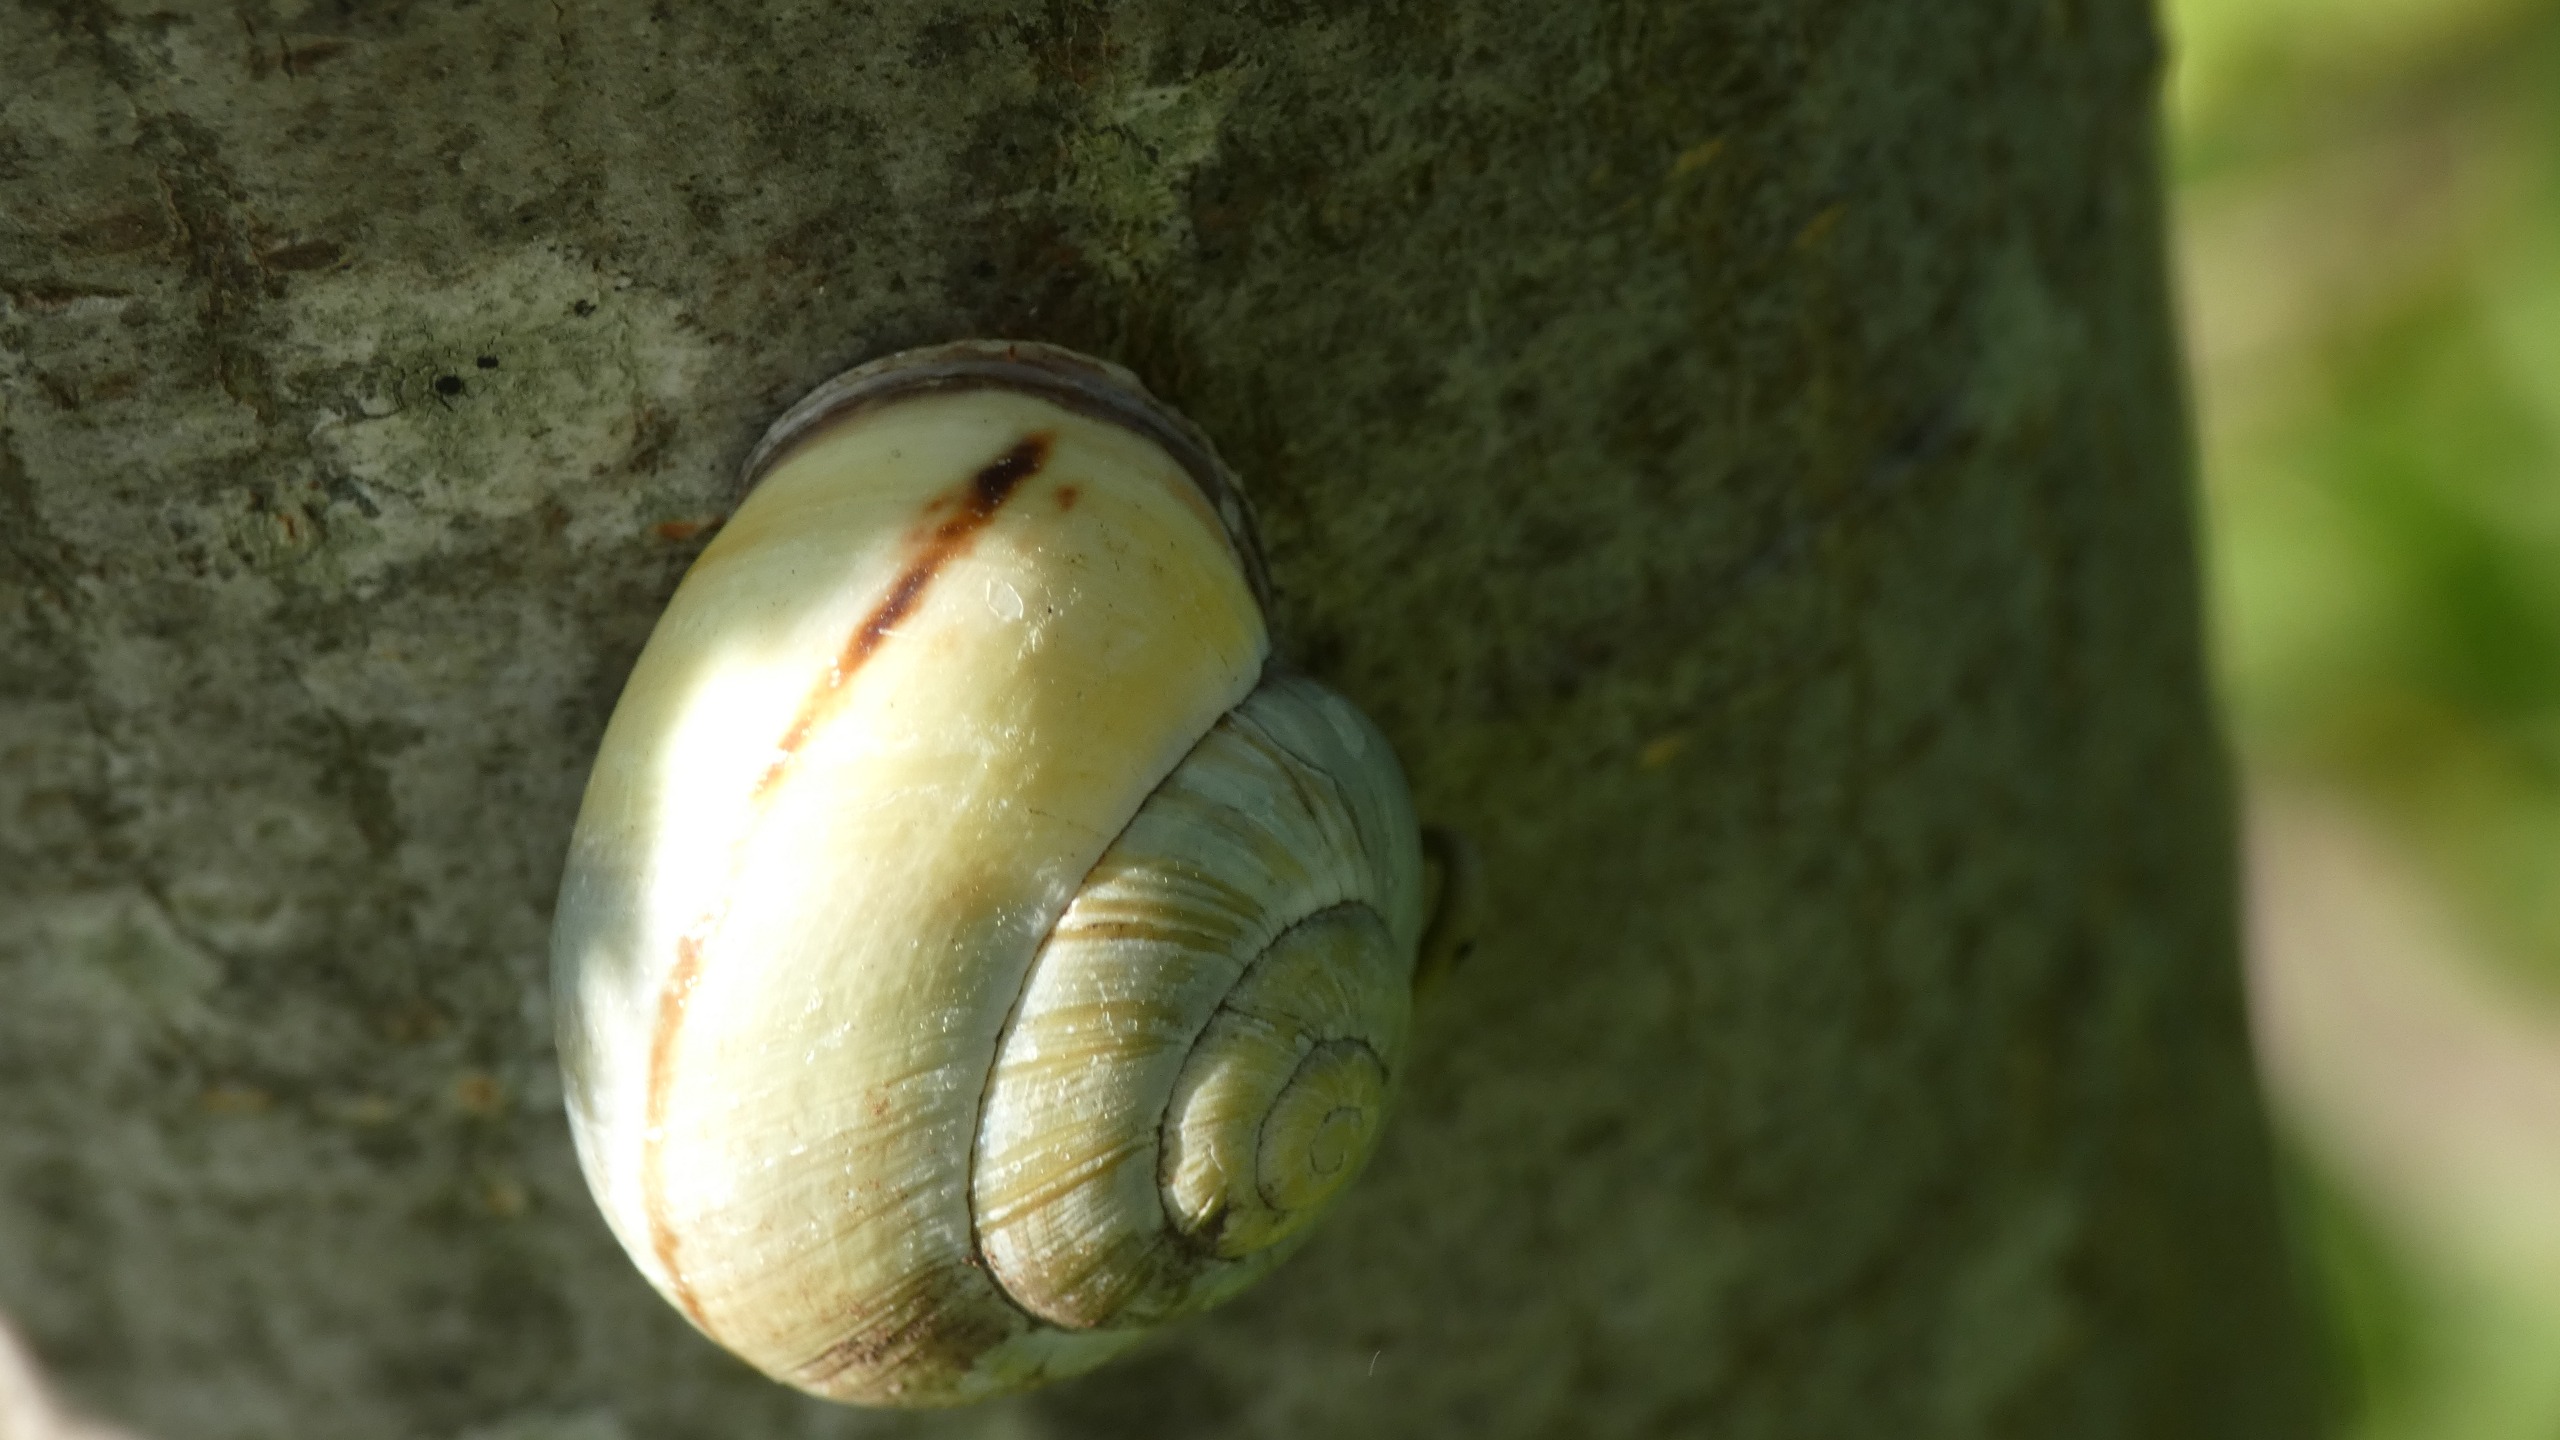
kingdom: Animalia
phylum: Mollusca
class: Gastropoda
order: Stylommatophora
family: Helicidae
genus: Cepaea
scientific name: Cepaea nemoralis
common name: Lundsnegl
